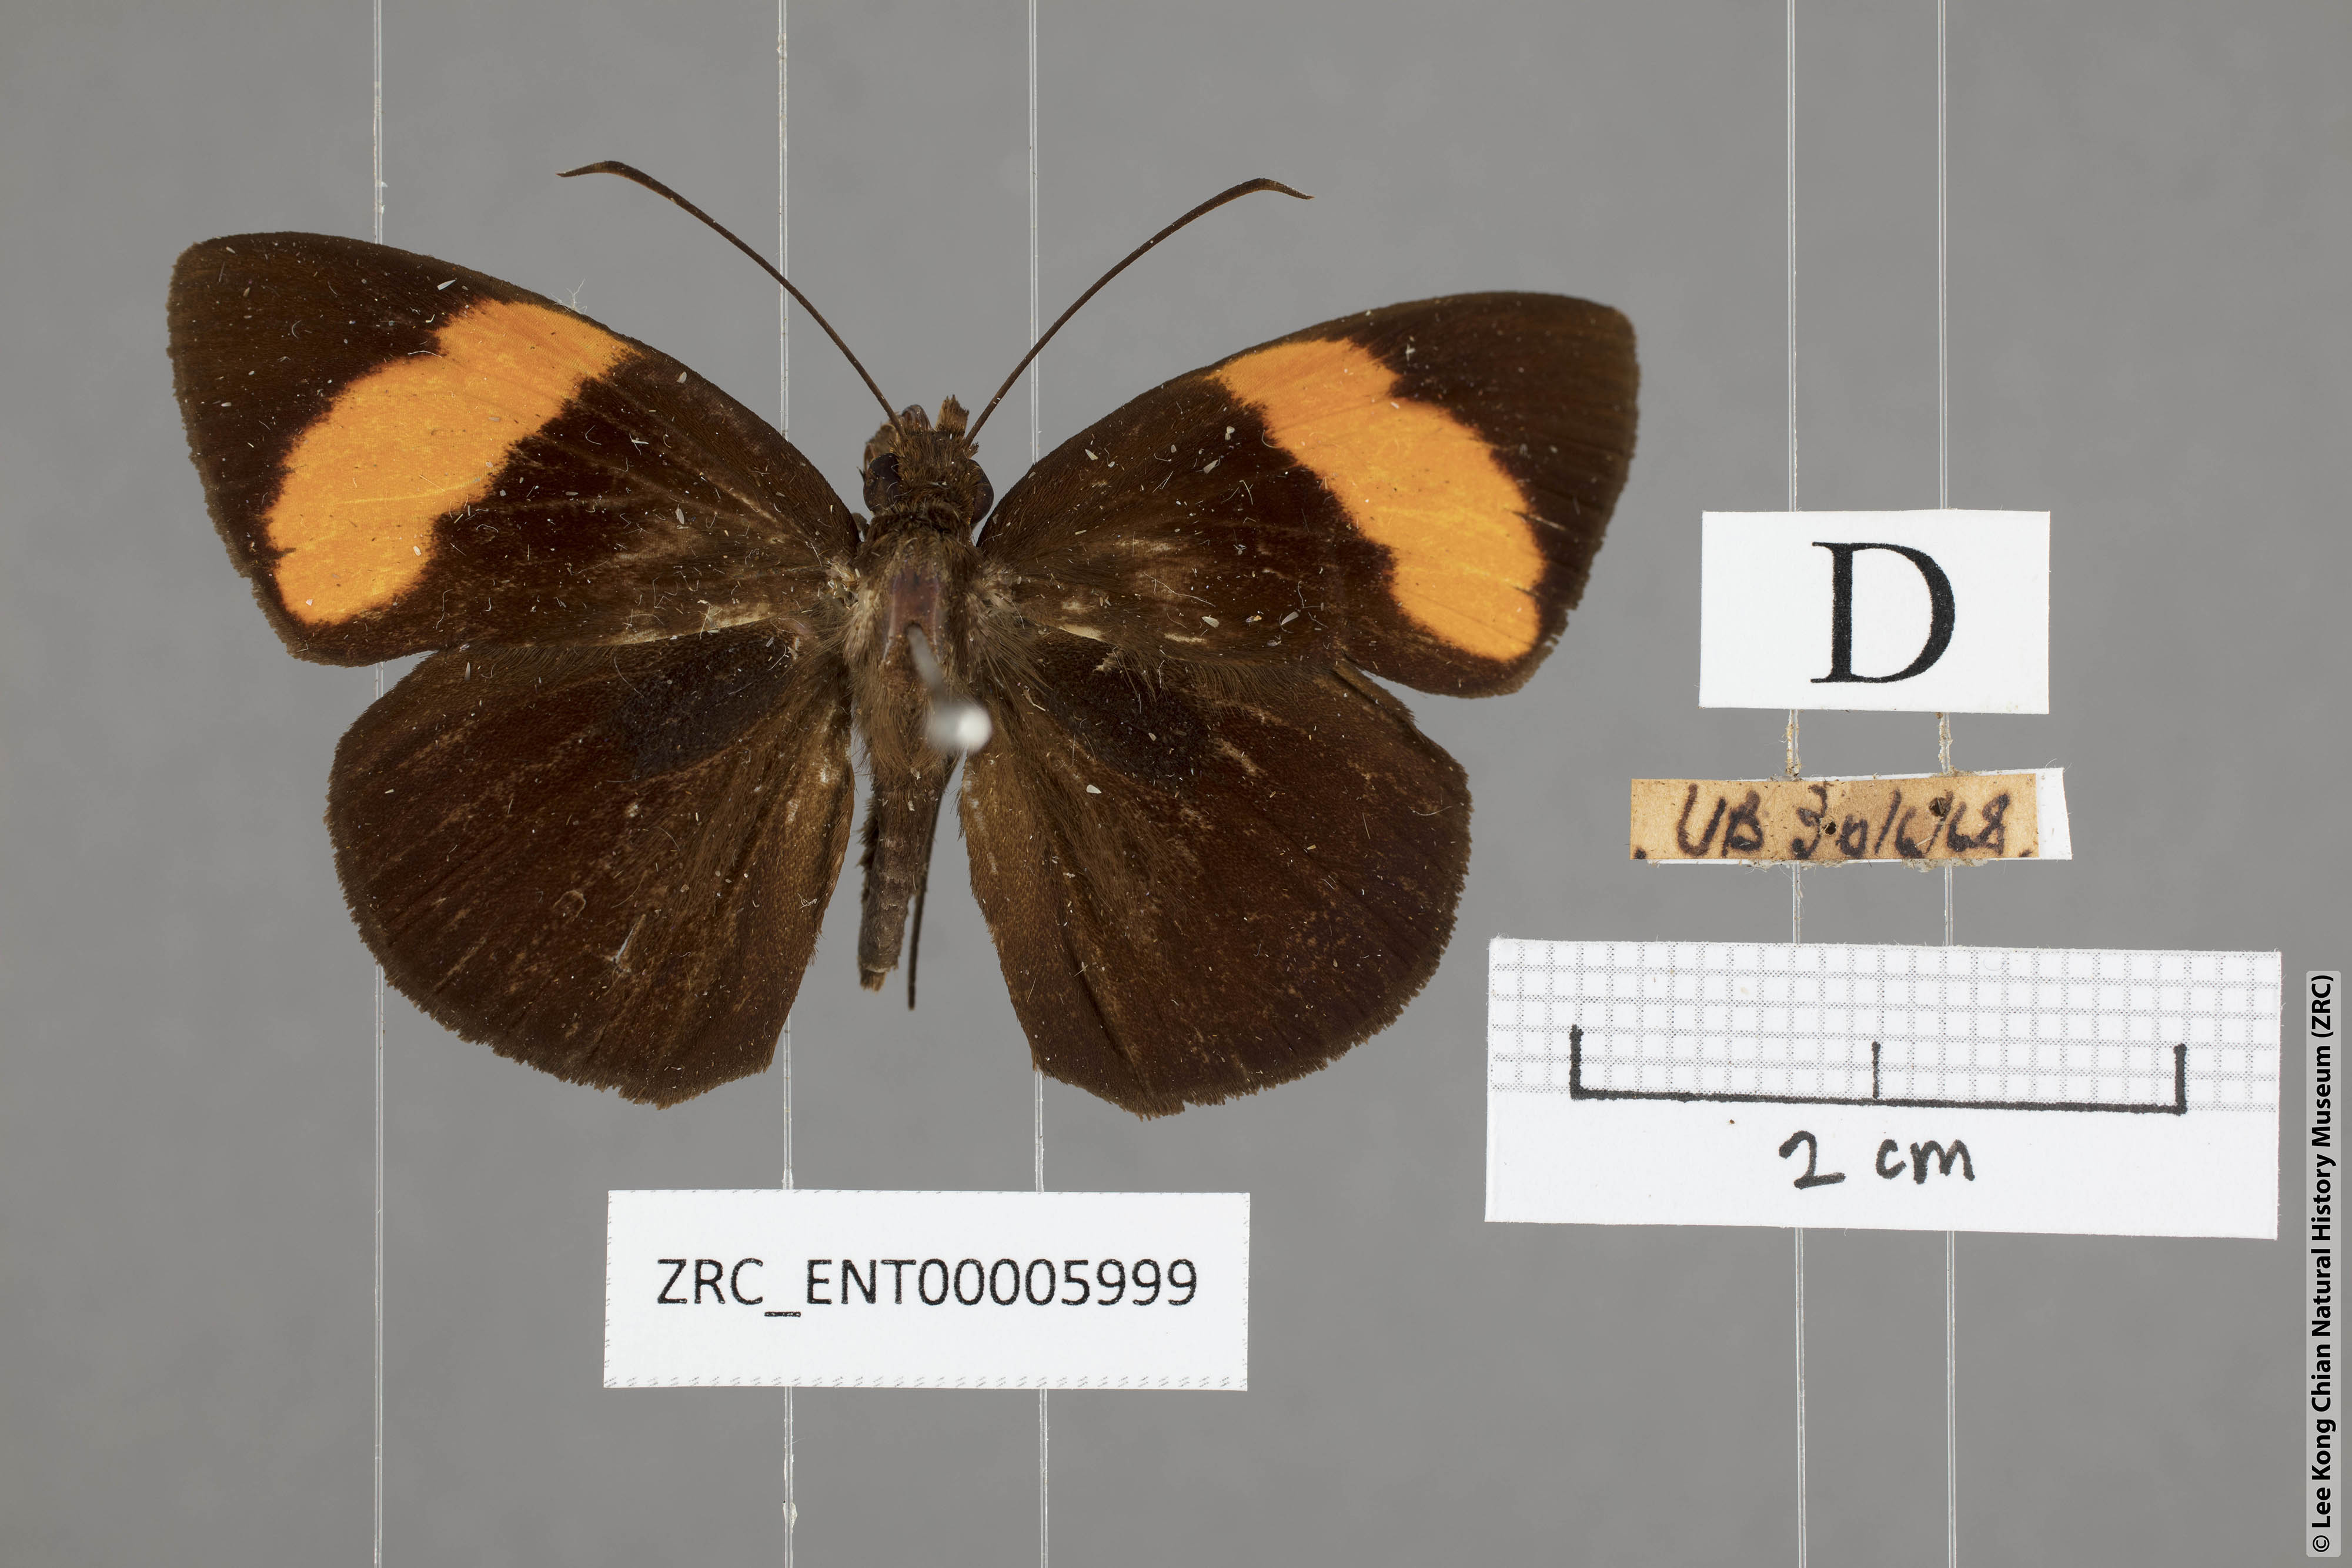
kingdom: Animalia
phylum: Arthropoda
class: Insecta
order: Lepidoptera
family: Hesperiidae
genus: Ancistroides
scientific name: Ancistroides armatus
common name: Red demon
